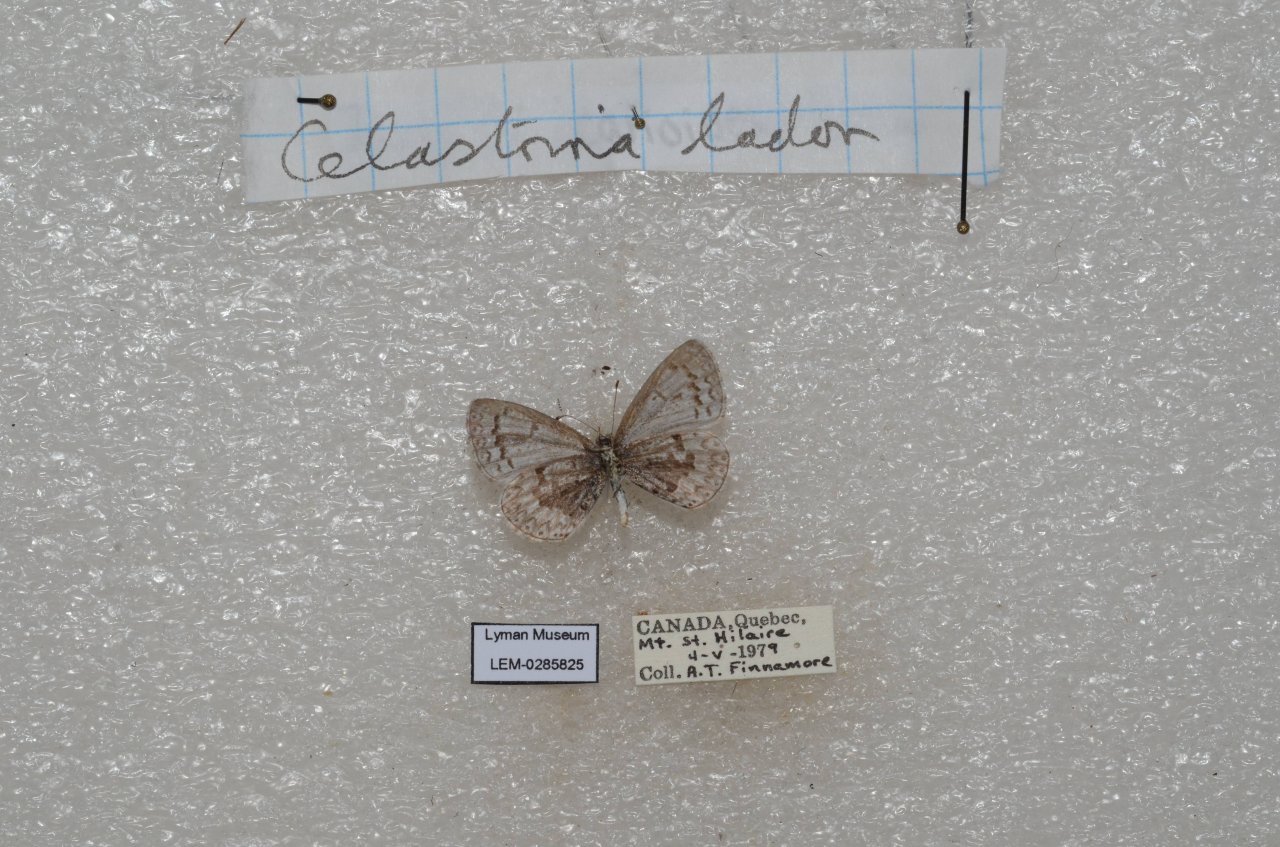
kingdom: Animalia
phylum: Arthropoda
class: Insecta
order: Lepidoptera
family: Lycaenidae
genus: Celastrina
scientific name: Celastrina lucia
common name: Northern Spring Azure
